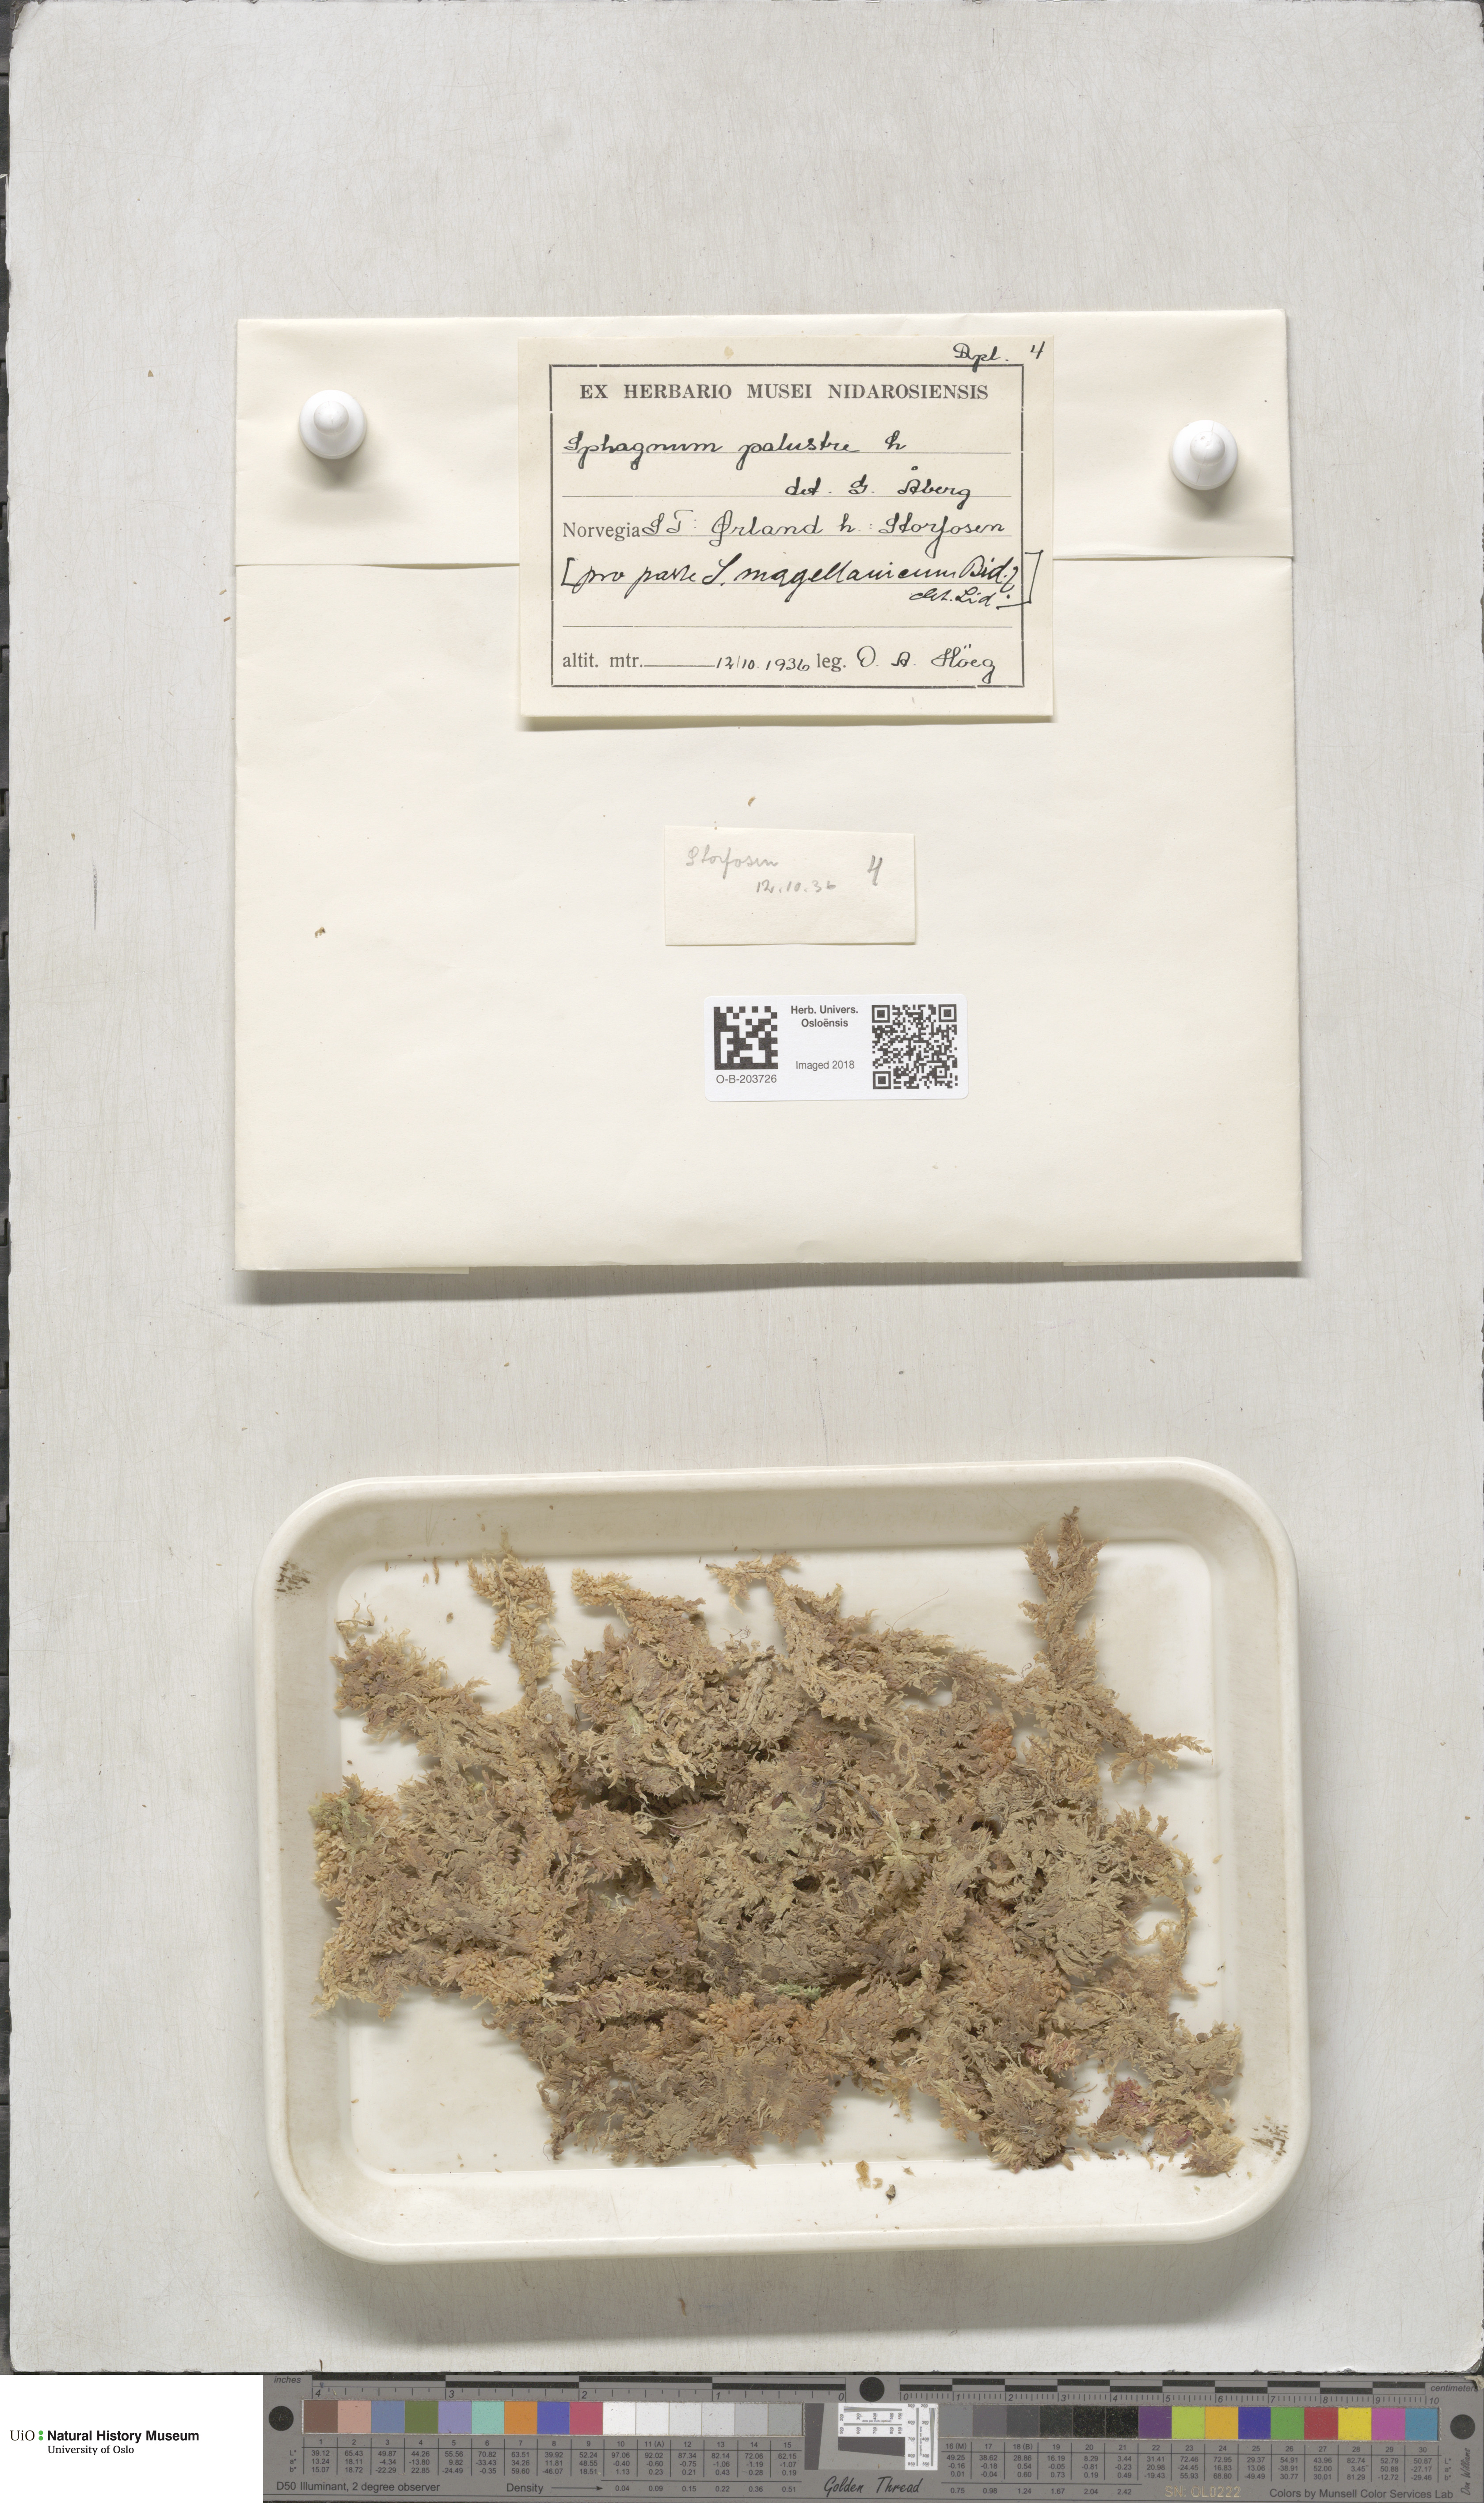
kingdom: Plantae
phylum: Bryophyta
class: Sphagnopsida
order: Sphagnales
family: Sphagnaceae
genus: Sphagnum
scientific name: Sphagnum palustre
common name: Blunt-leaved bog-moss
